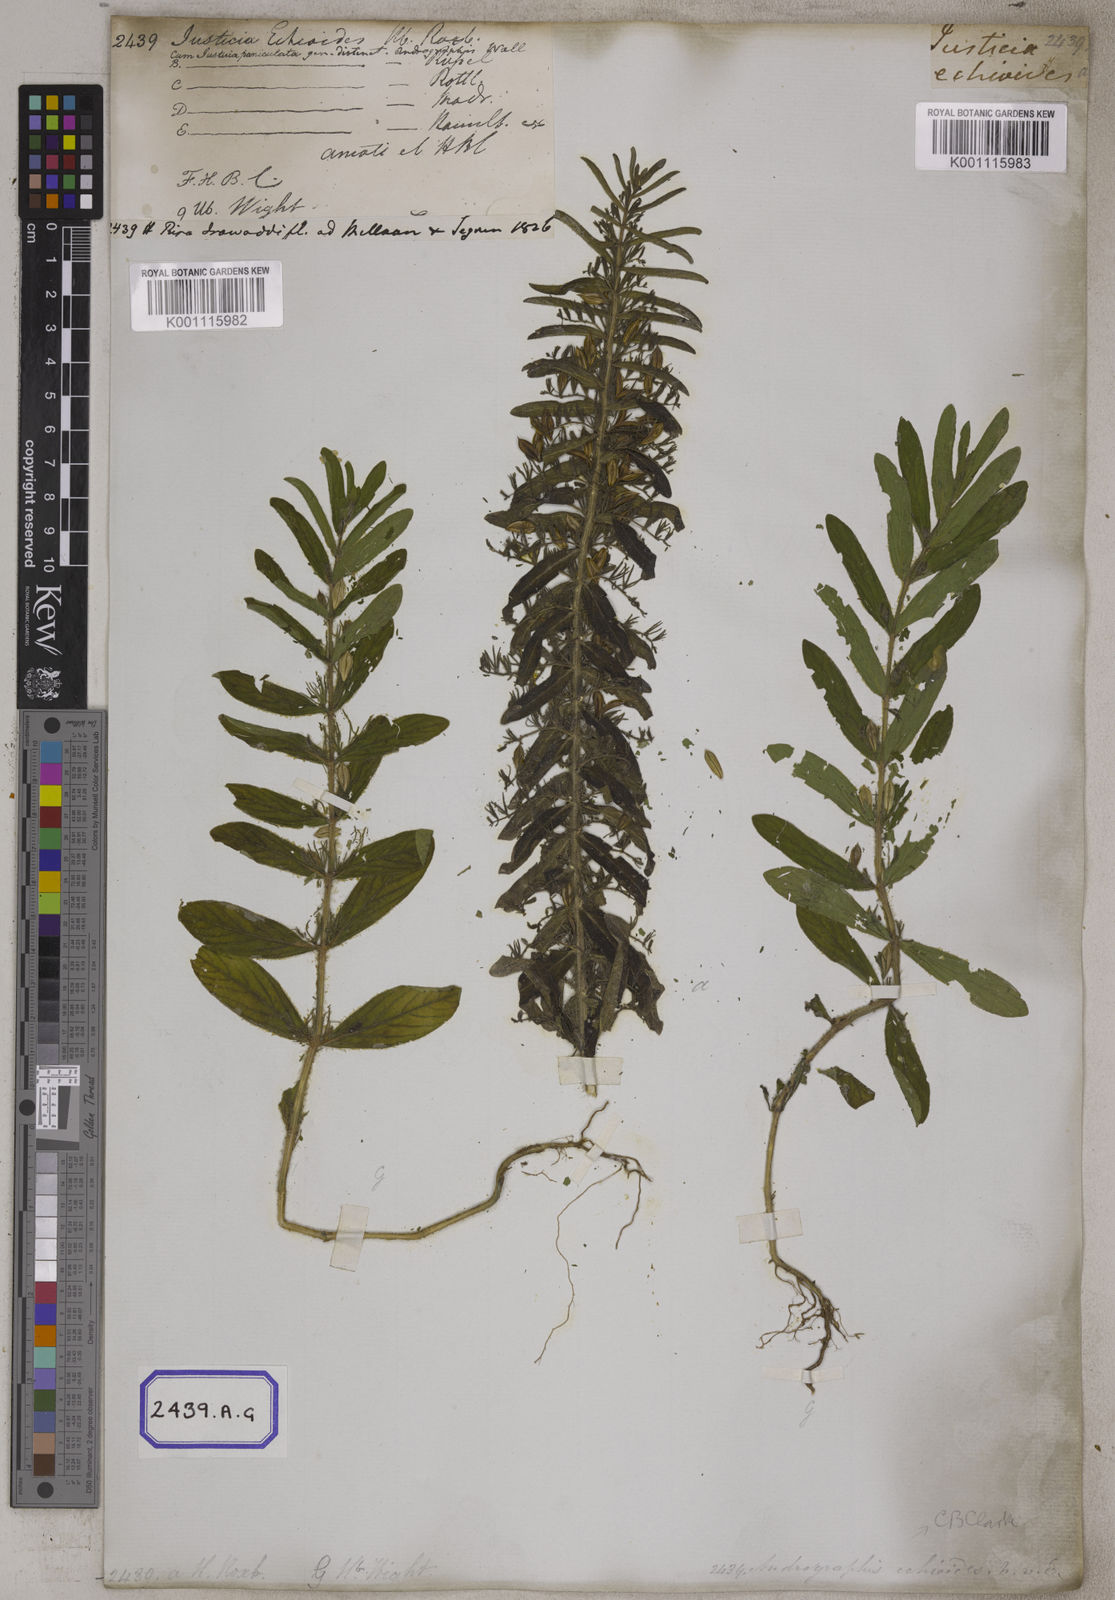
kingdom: Plantae
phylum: Tracheophyta
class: Magnoliopsida
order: Lamiales
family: Acanthaceae
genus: Andrographis
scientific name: Andrographis echioides
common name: False waterwillow
